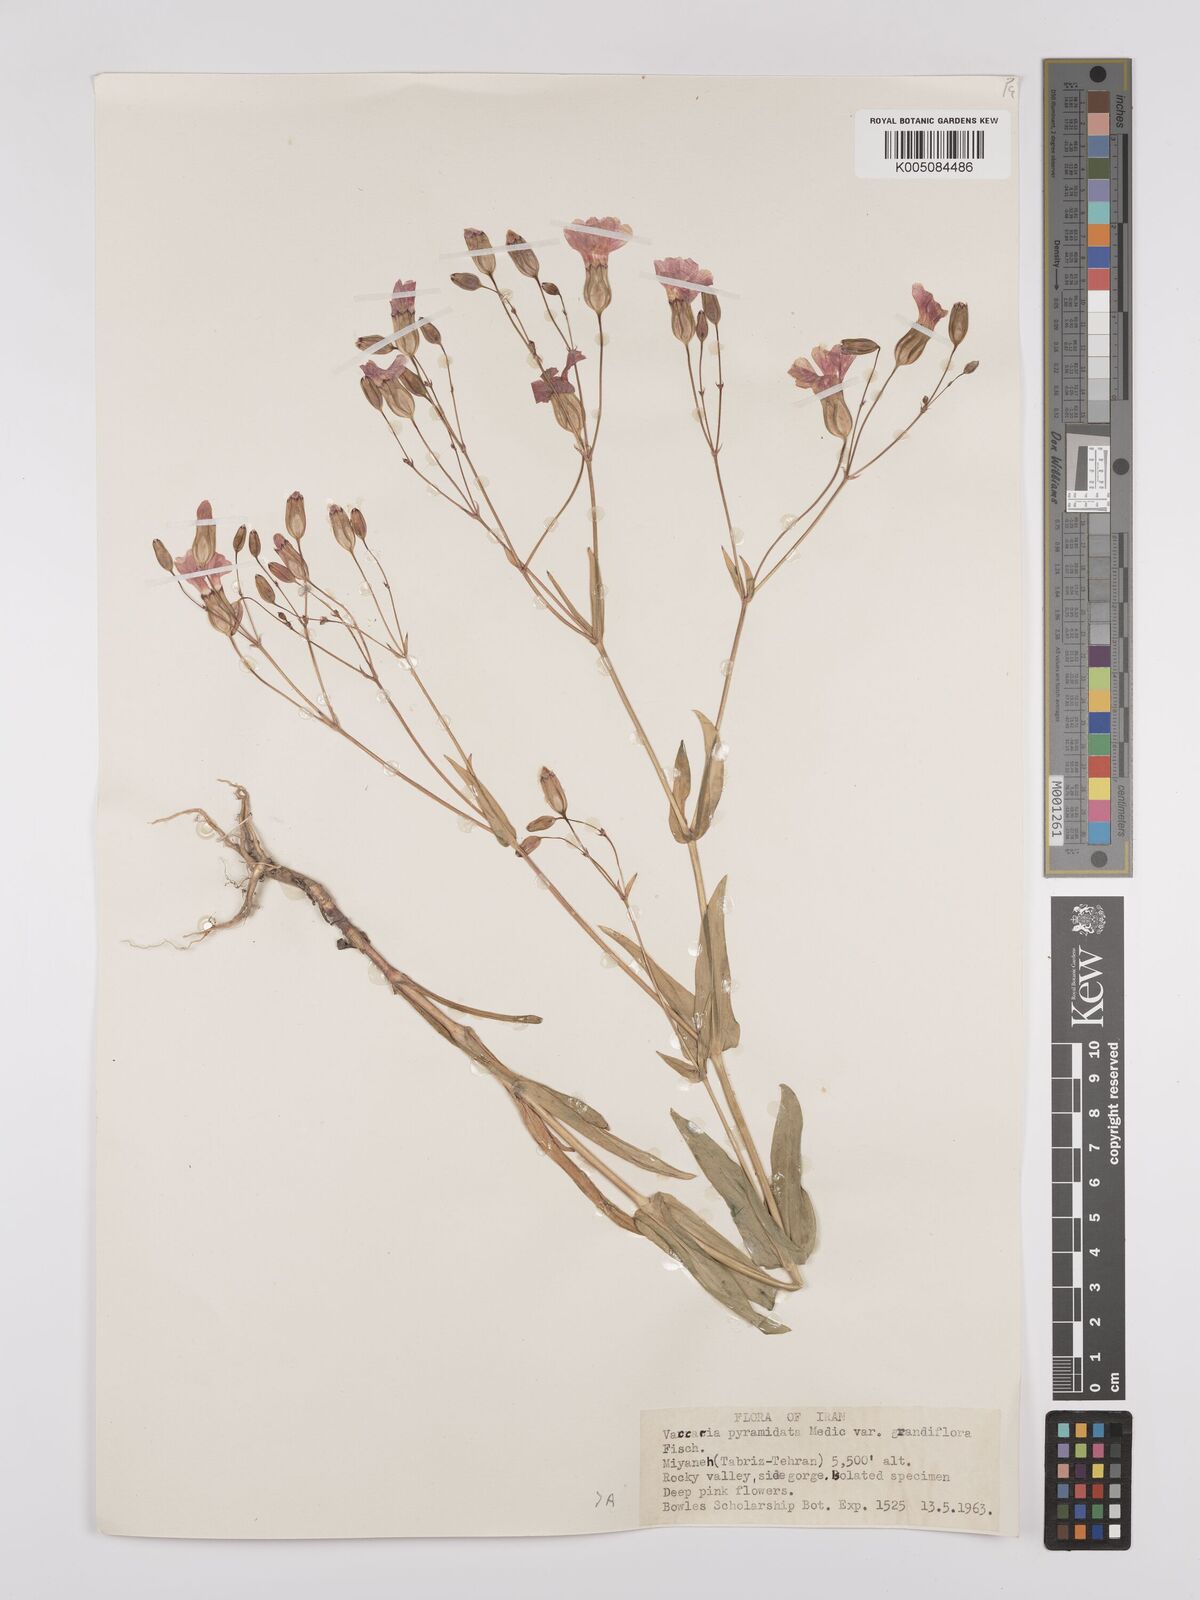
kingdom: Plantae
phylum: Tracheophyta
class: Magnoliopsida
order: Caryophyllales
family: Caryophyllaceae
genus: Gypsophila
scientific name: Gypsophila vaccaria
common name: Cow soapwort
